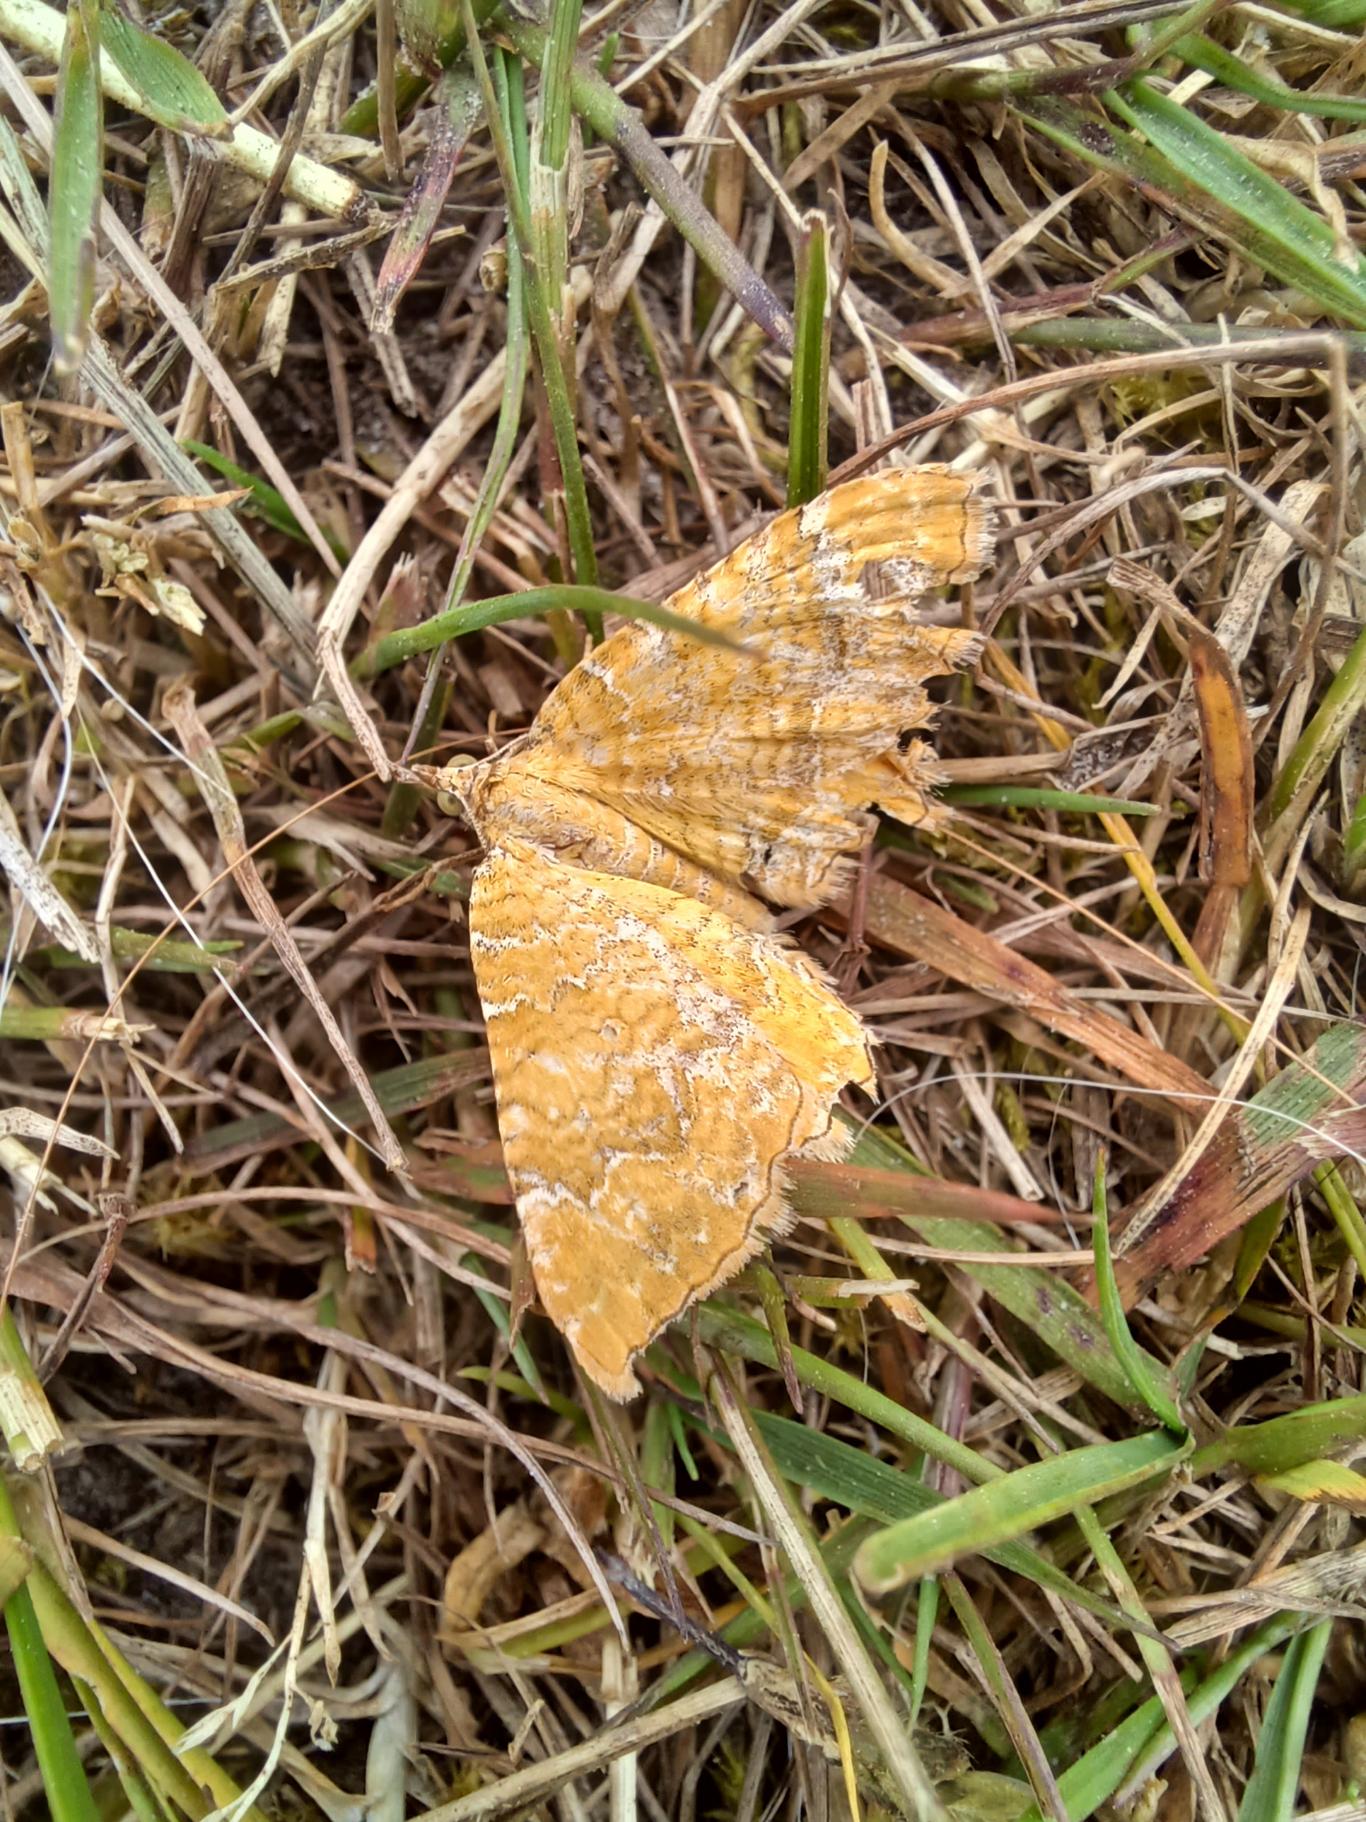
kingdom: Animalia
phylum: Arthropoda
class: Insecta
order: Lepidoptera
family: Geometridae
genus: Camptogramma
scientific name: Camptogramma bilineata
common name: Okkergul bladmåler
